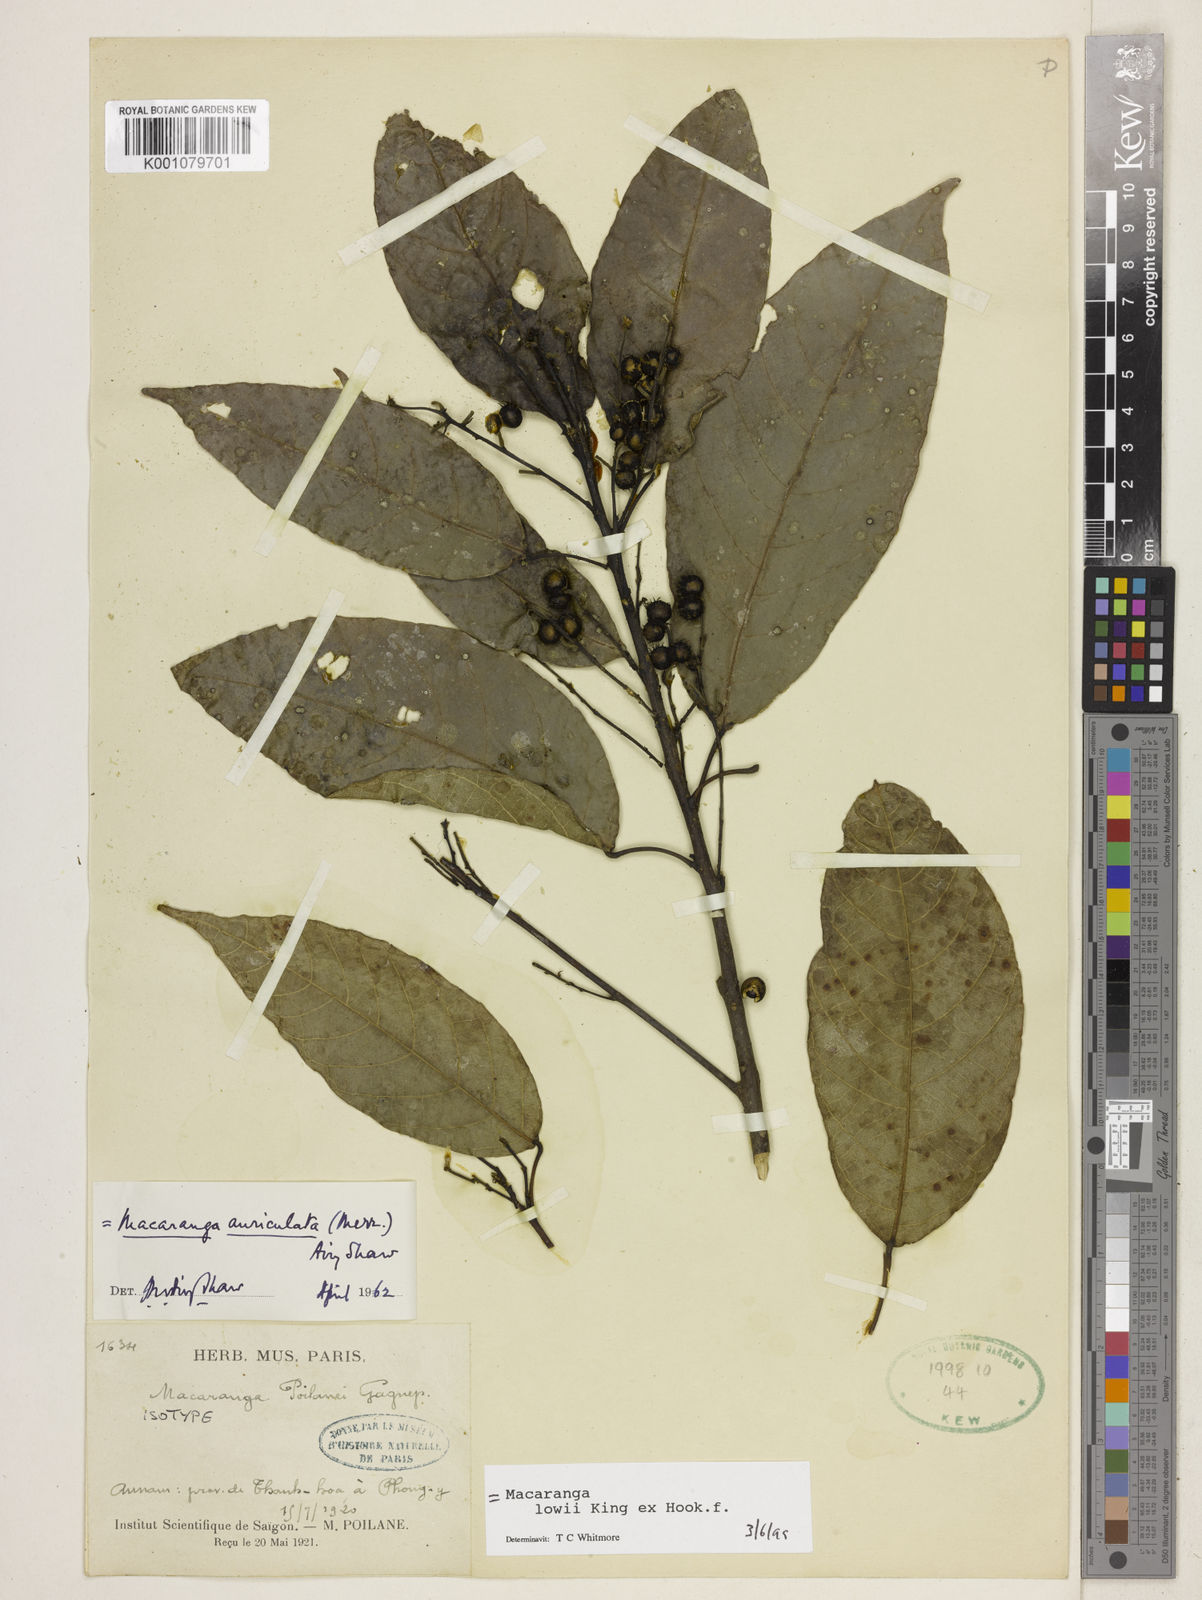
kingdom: Plantae
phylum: Tracheophyta
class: Magnoliopsida
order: Malpighiales
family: Euphorbiaceae
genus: Macaranga
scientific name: Macaranga lowii
